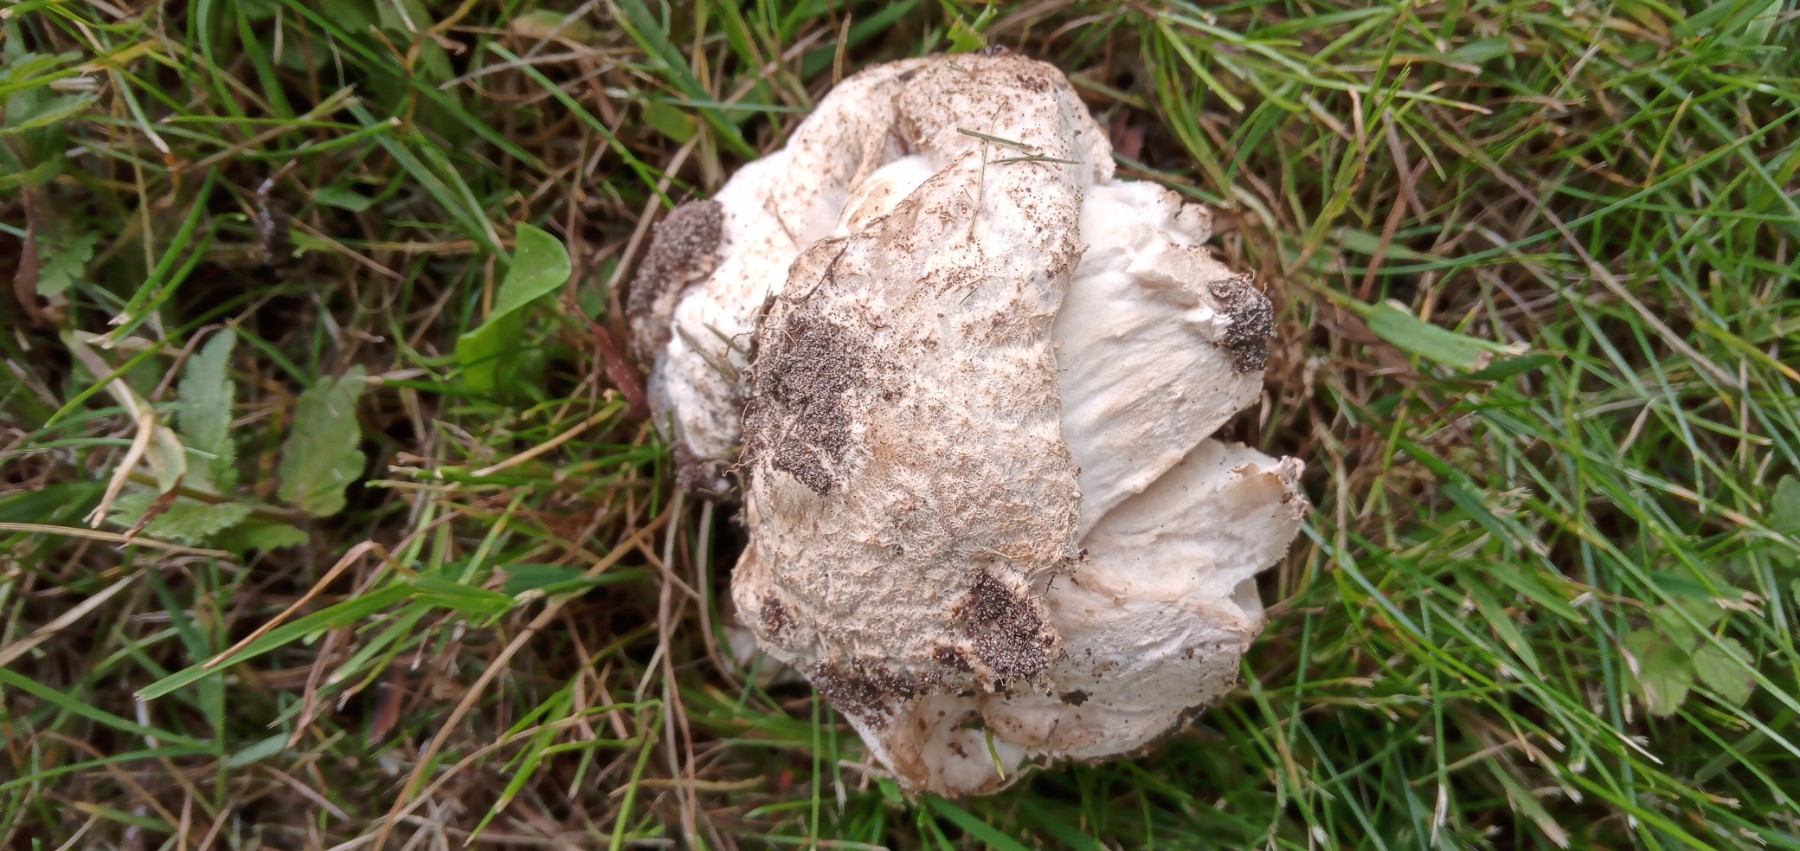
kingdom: Fungi
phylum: Basidiomycota
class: Agaricomycetes
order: Agaricales
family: Amanitaceae
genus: Amanita
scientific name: Amanita
